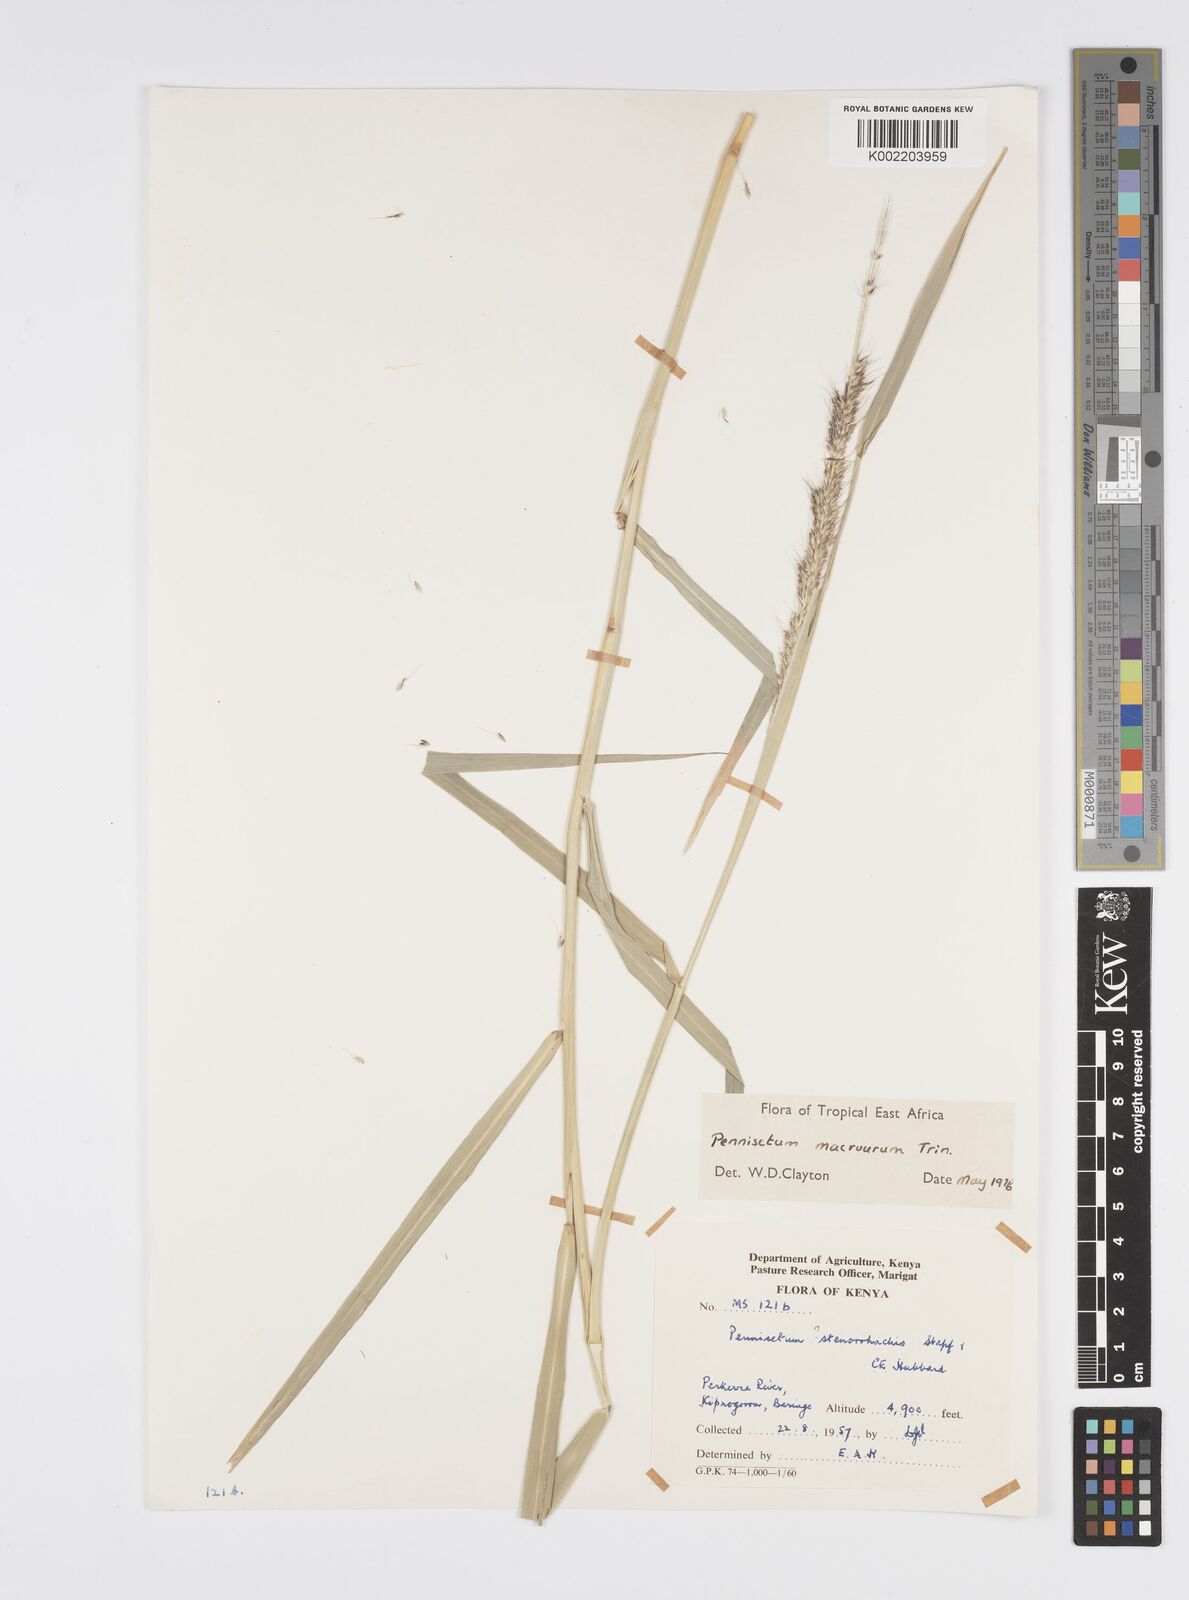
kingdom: Plantae
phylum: Tracheophyta
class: Liliopsida
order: Poales
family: Poaceae
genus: Cenchrus
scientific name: Cenchrus caudatus
